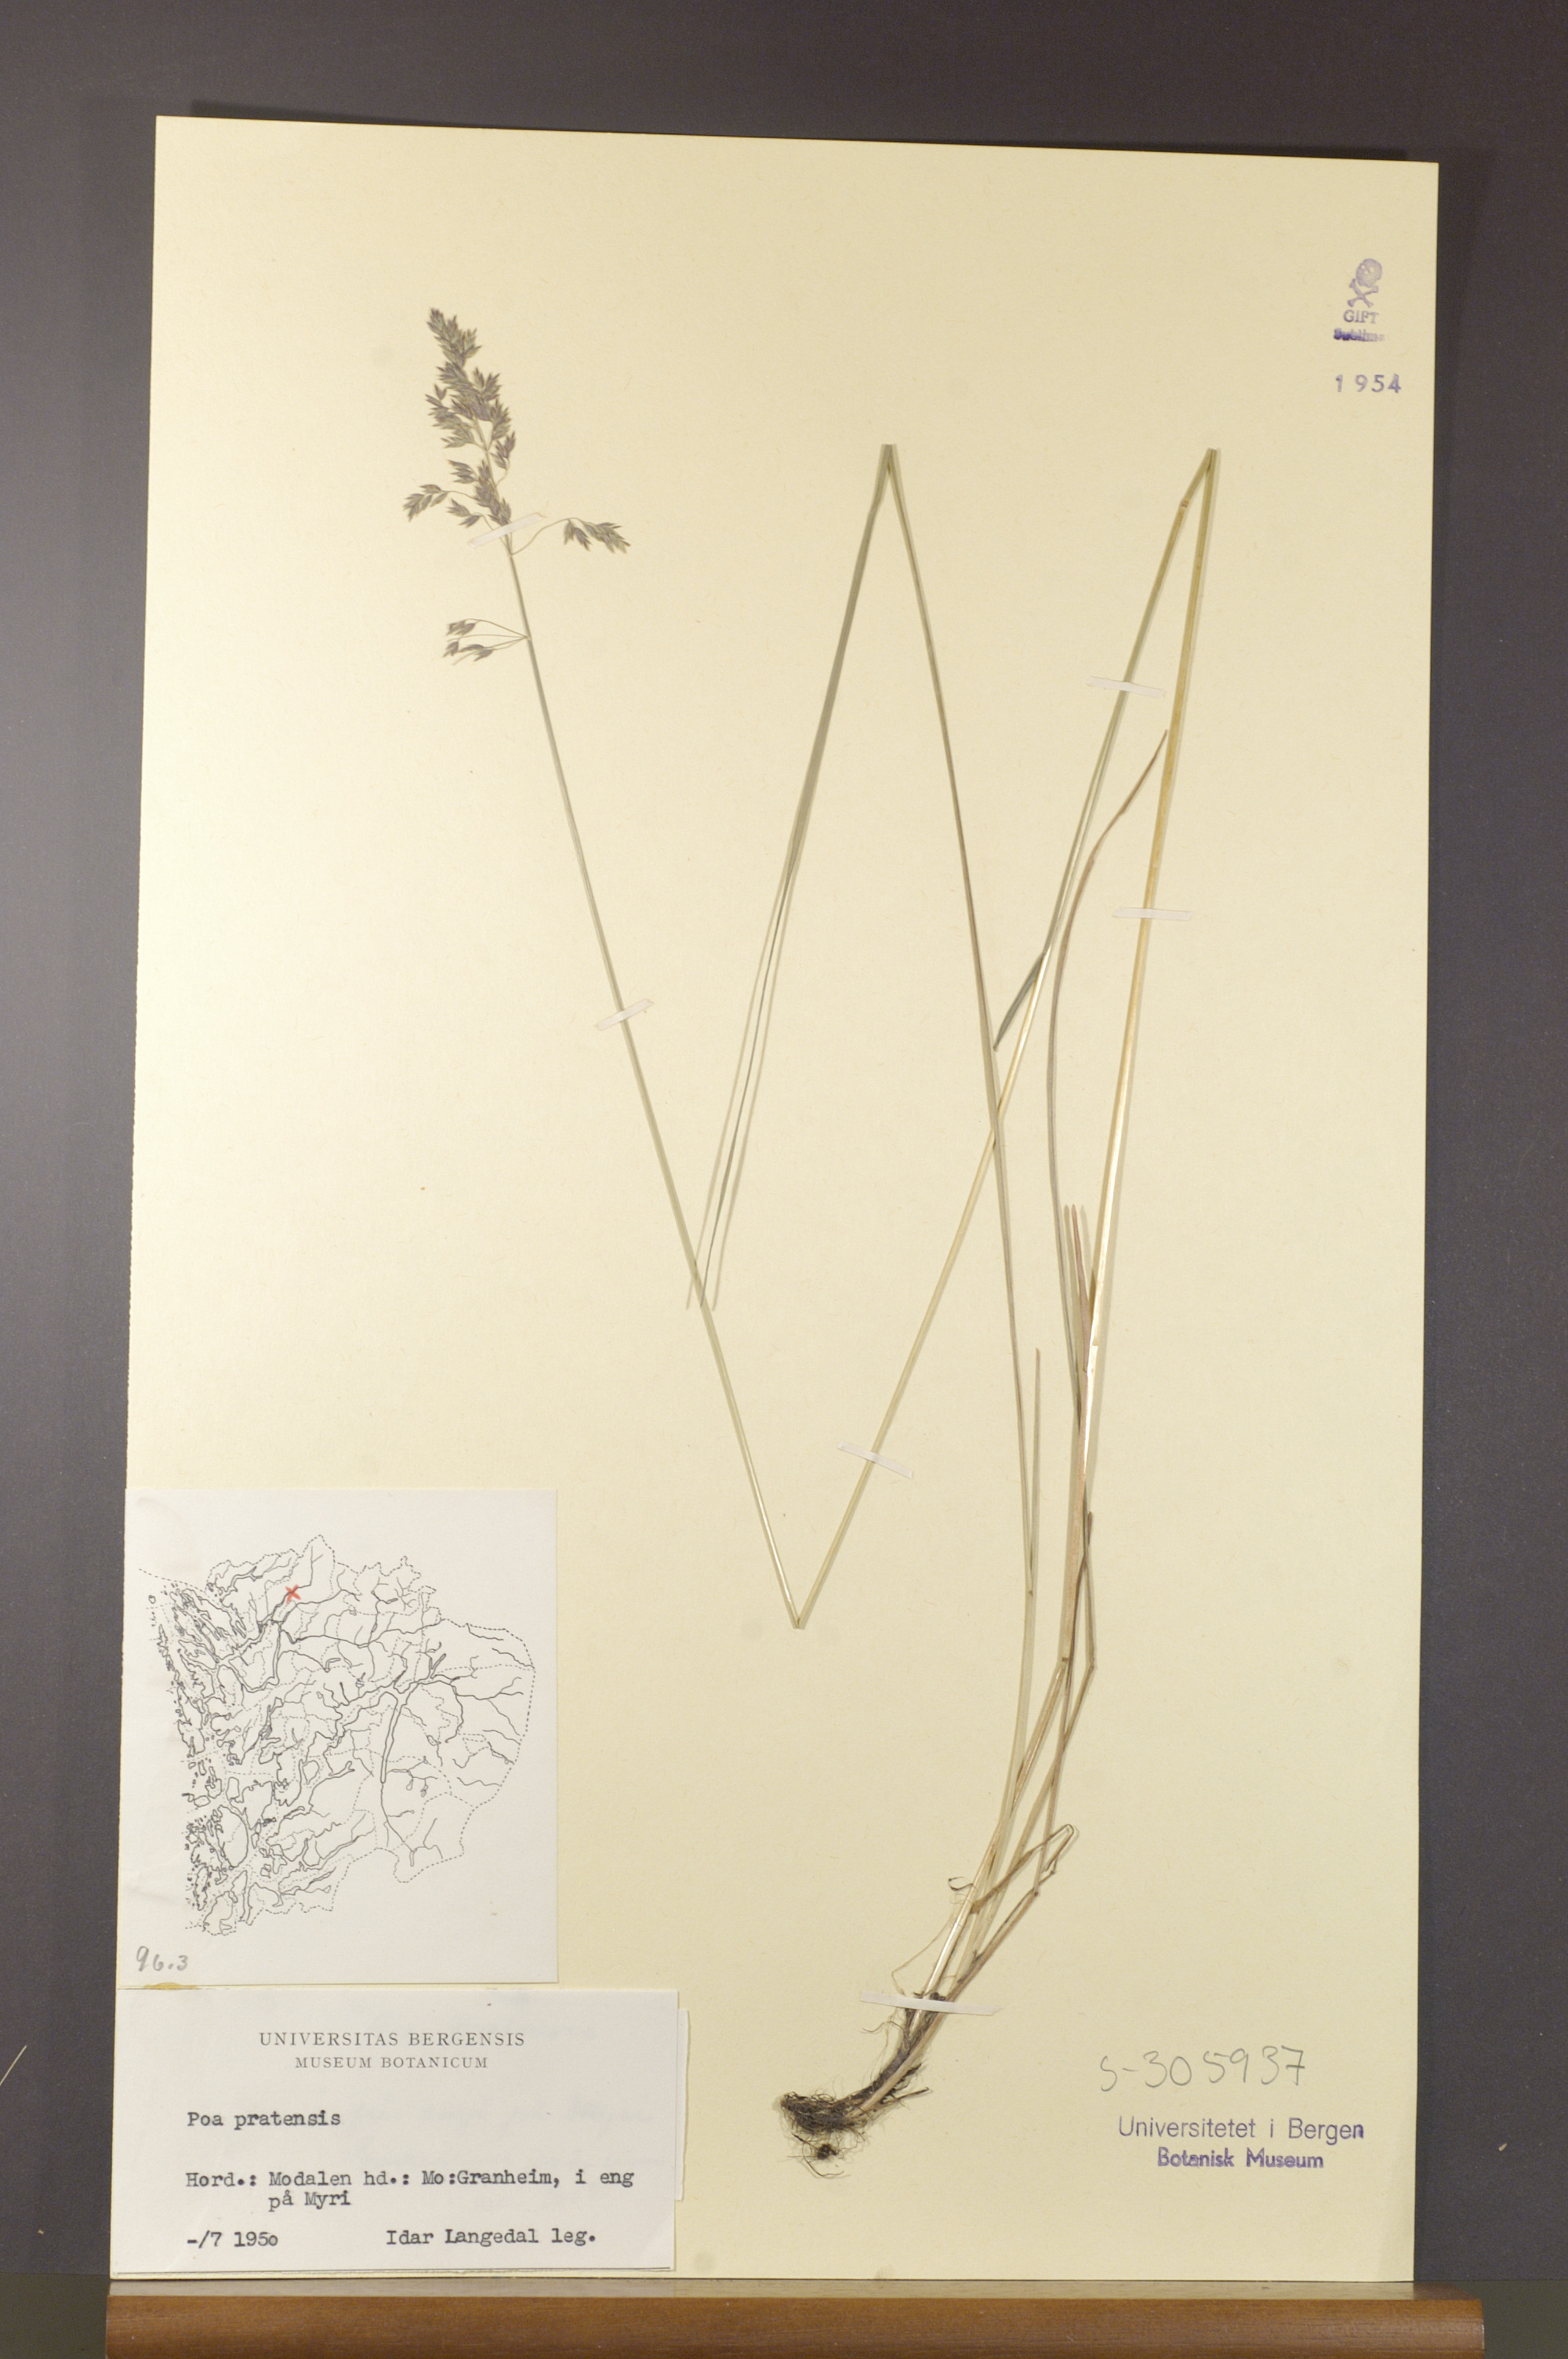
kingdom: Plantae
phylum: Tracheophyta
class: Liliopsida
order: Poales
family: Poaceae
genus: Poa
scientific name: Poa pratensis
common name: Kentucky bluegrass
